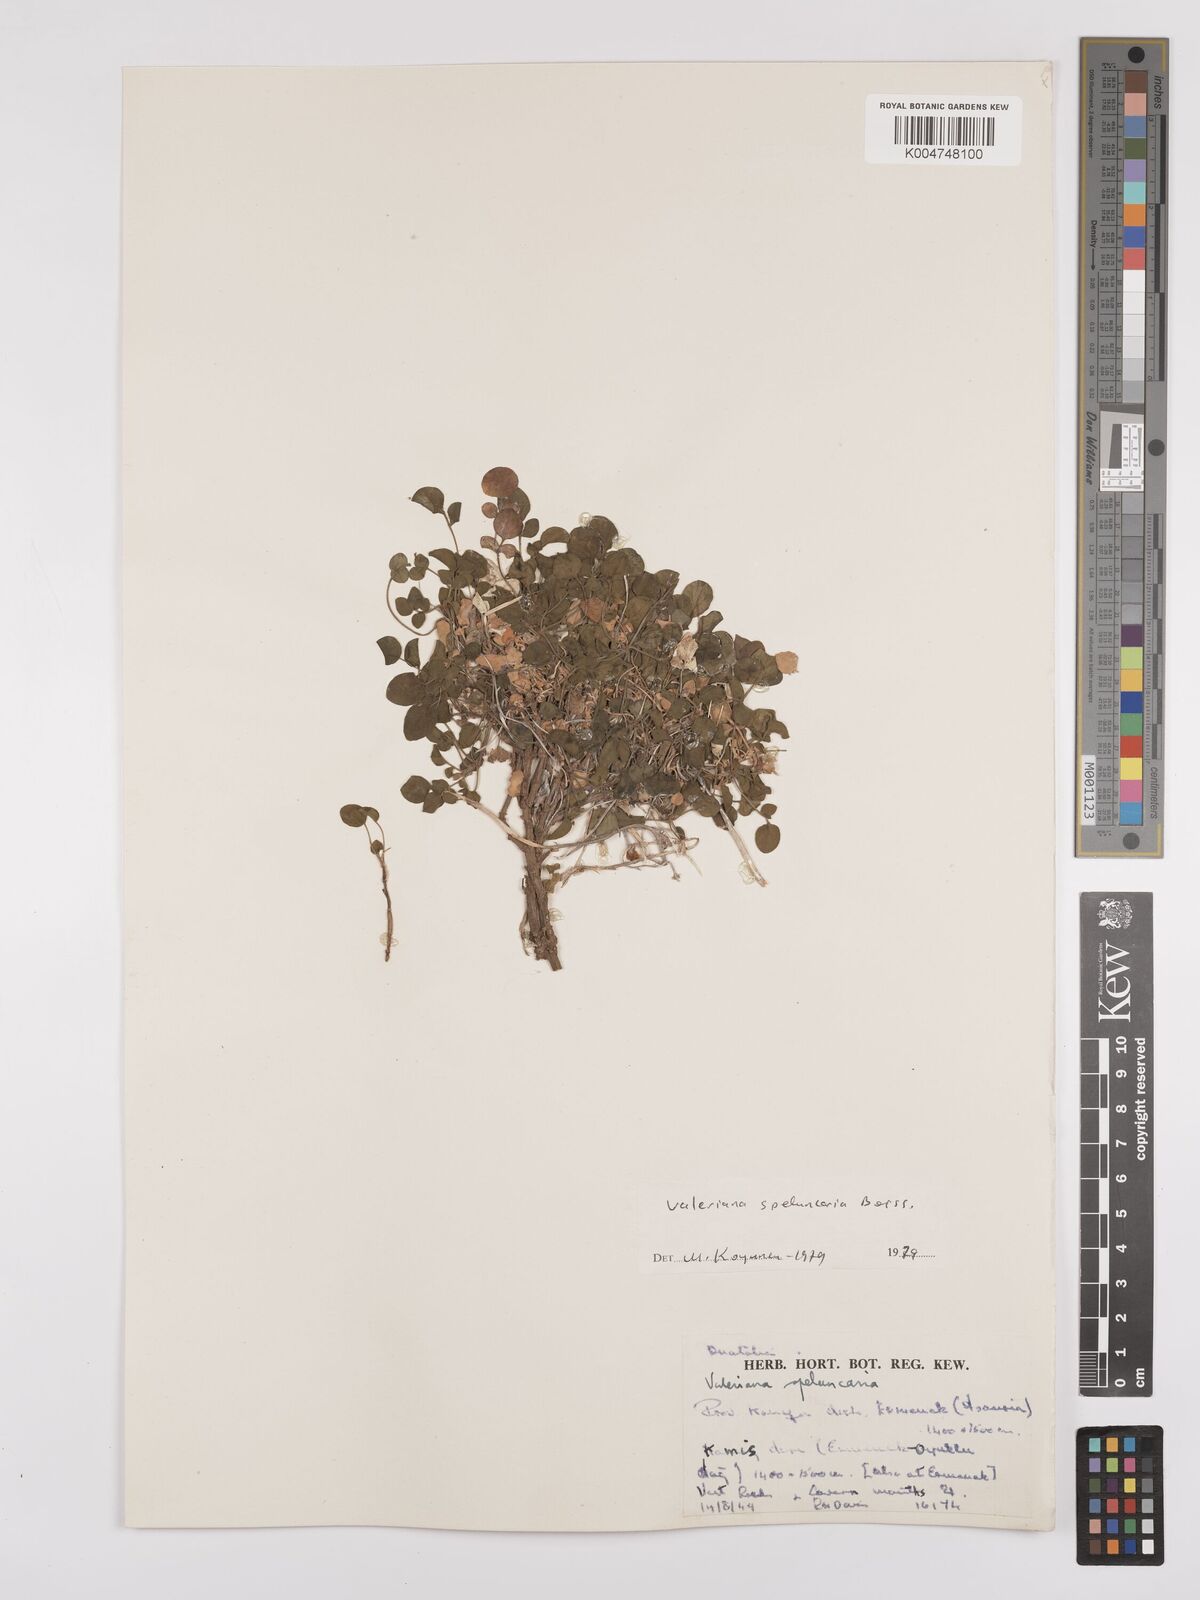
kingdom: Plantae
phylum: Tracheophyta
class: Magnoliopsida
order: Dipsacales
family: Caprifoliaceae
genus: Valeriana
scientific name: Valeriana petrophila
